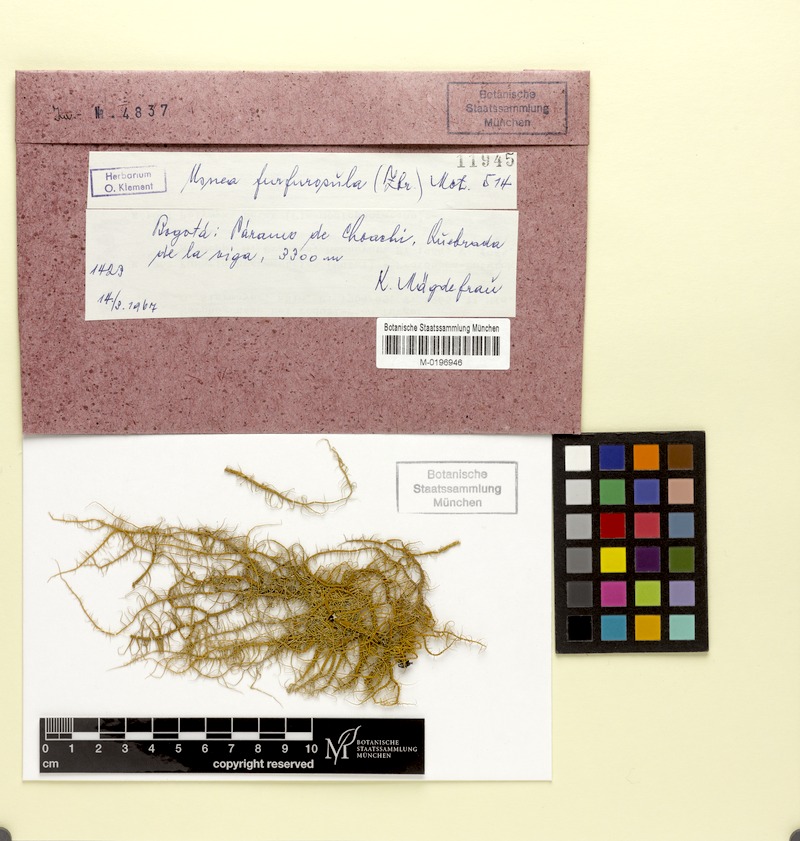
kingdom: Fungi
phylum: Ascomycota
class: Lecanoromycetes
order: Lecanorales
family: Parmeliaceae
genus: Usnea
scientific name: Usnea furfurosula
